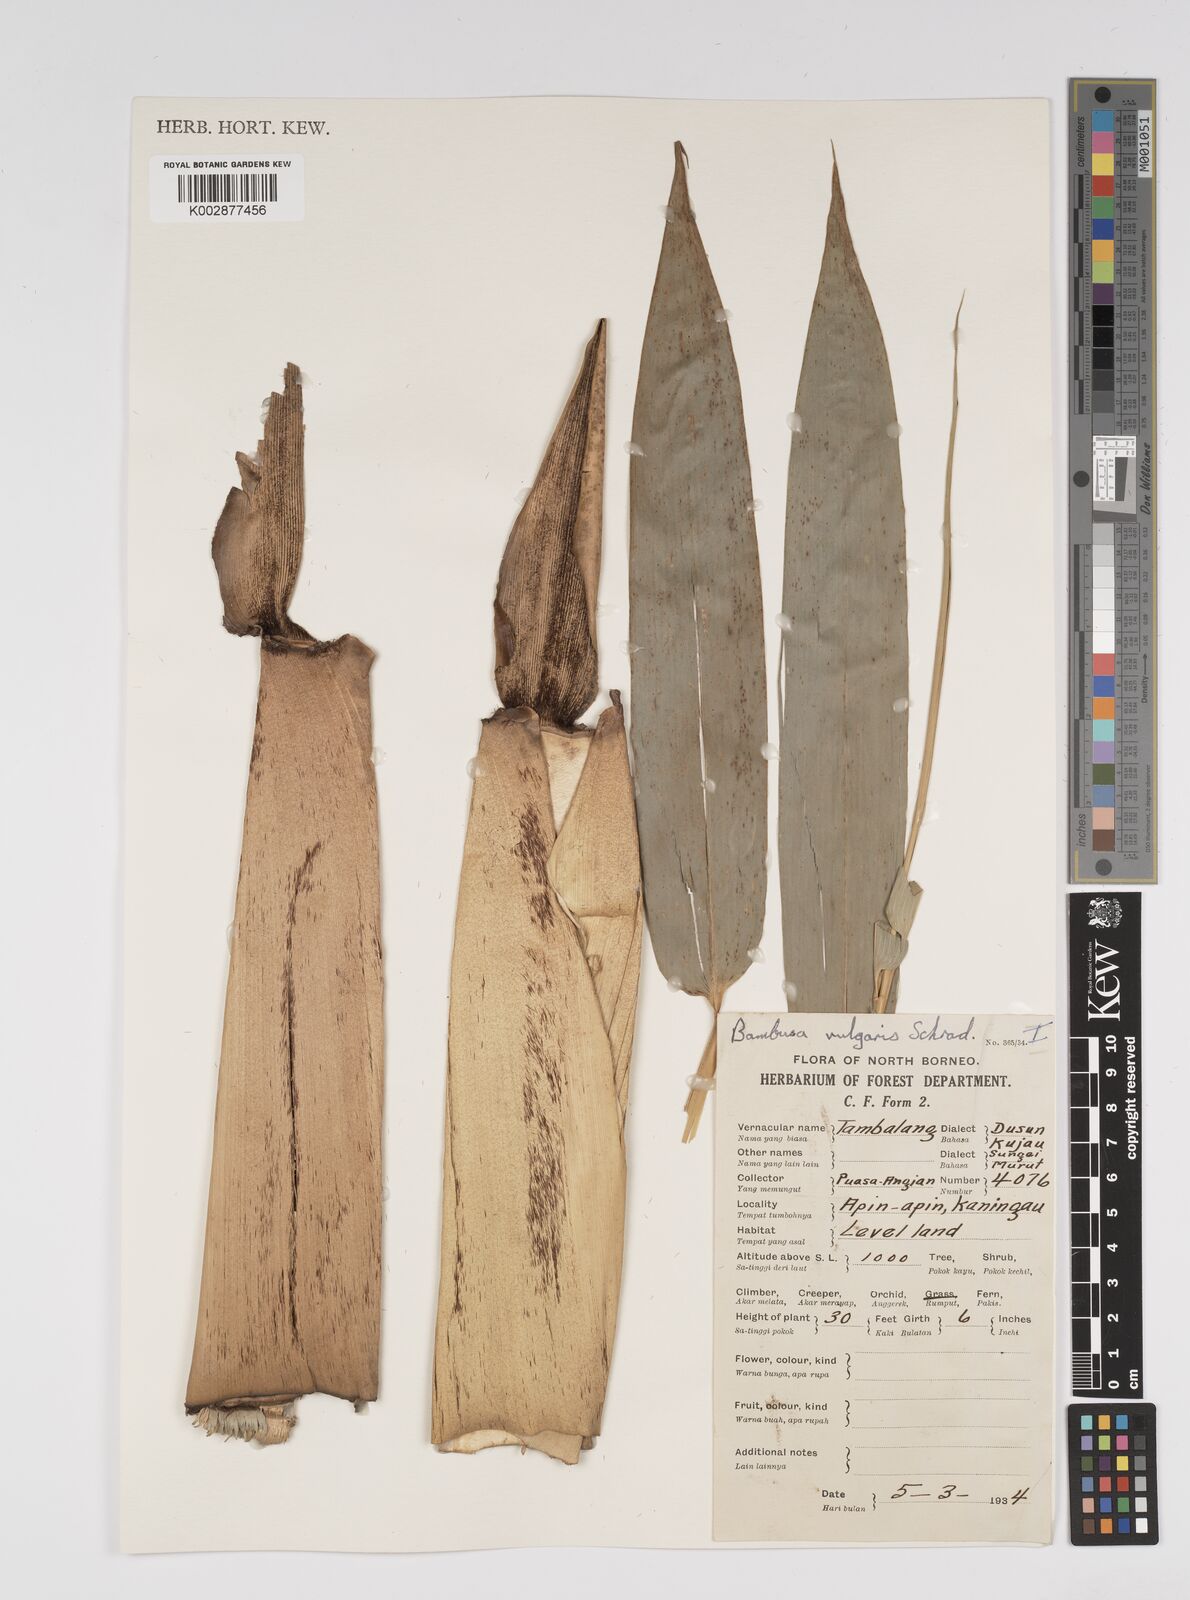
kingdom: Plantae
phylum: Tracheophyta
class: Liliopsida
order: Poales
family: Poaceae
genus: Bambusa
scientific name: Bambusa vulgaris
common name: Common bamboo
